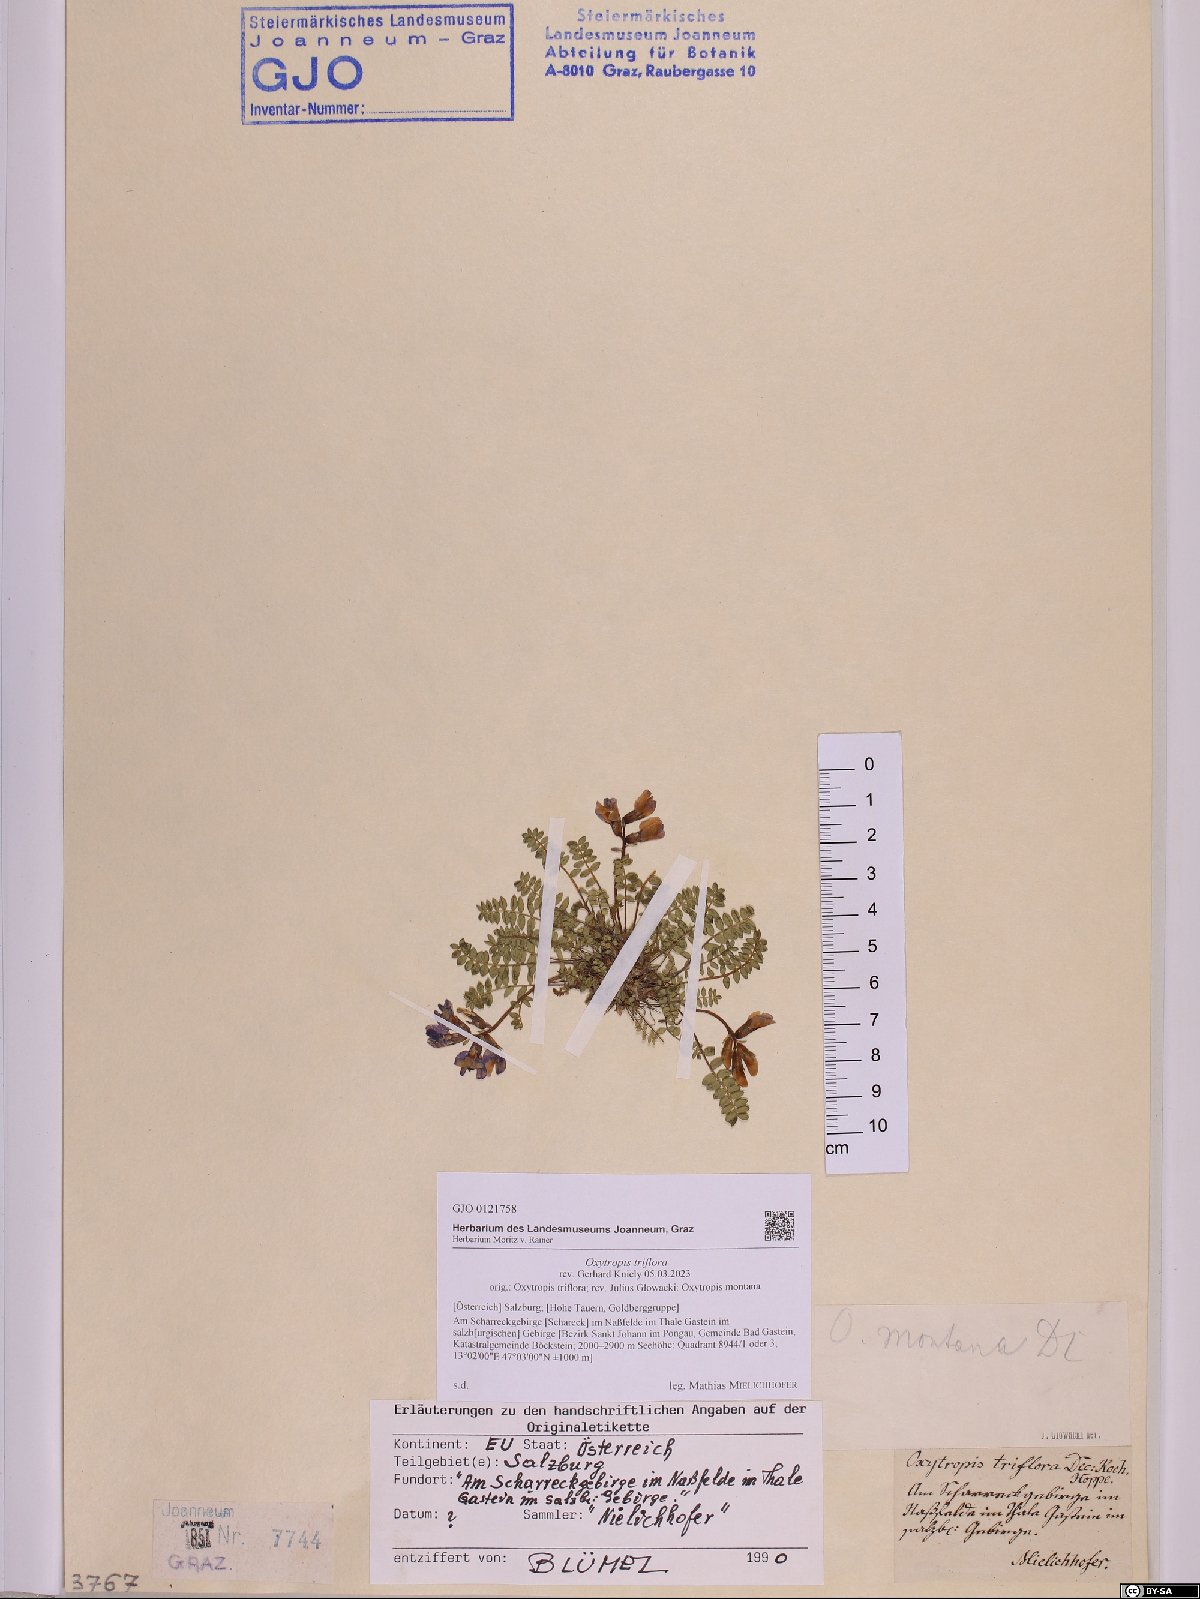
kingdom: Plantae
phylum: Tracheophyta
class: Magnoliopsida
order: Fabales
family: Fabaceae
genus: Oxytropis
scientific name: Oxytropis triflora
